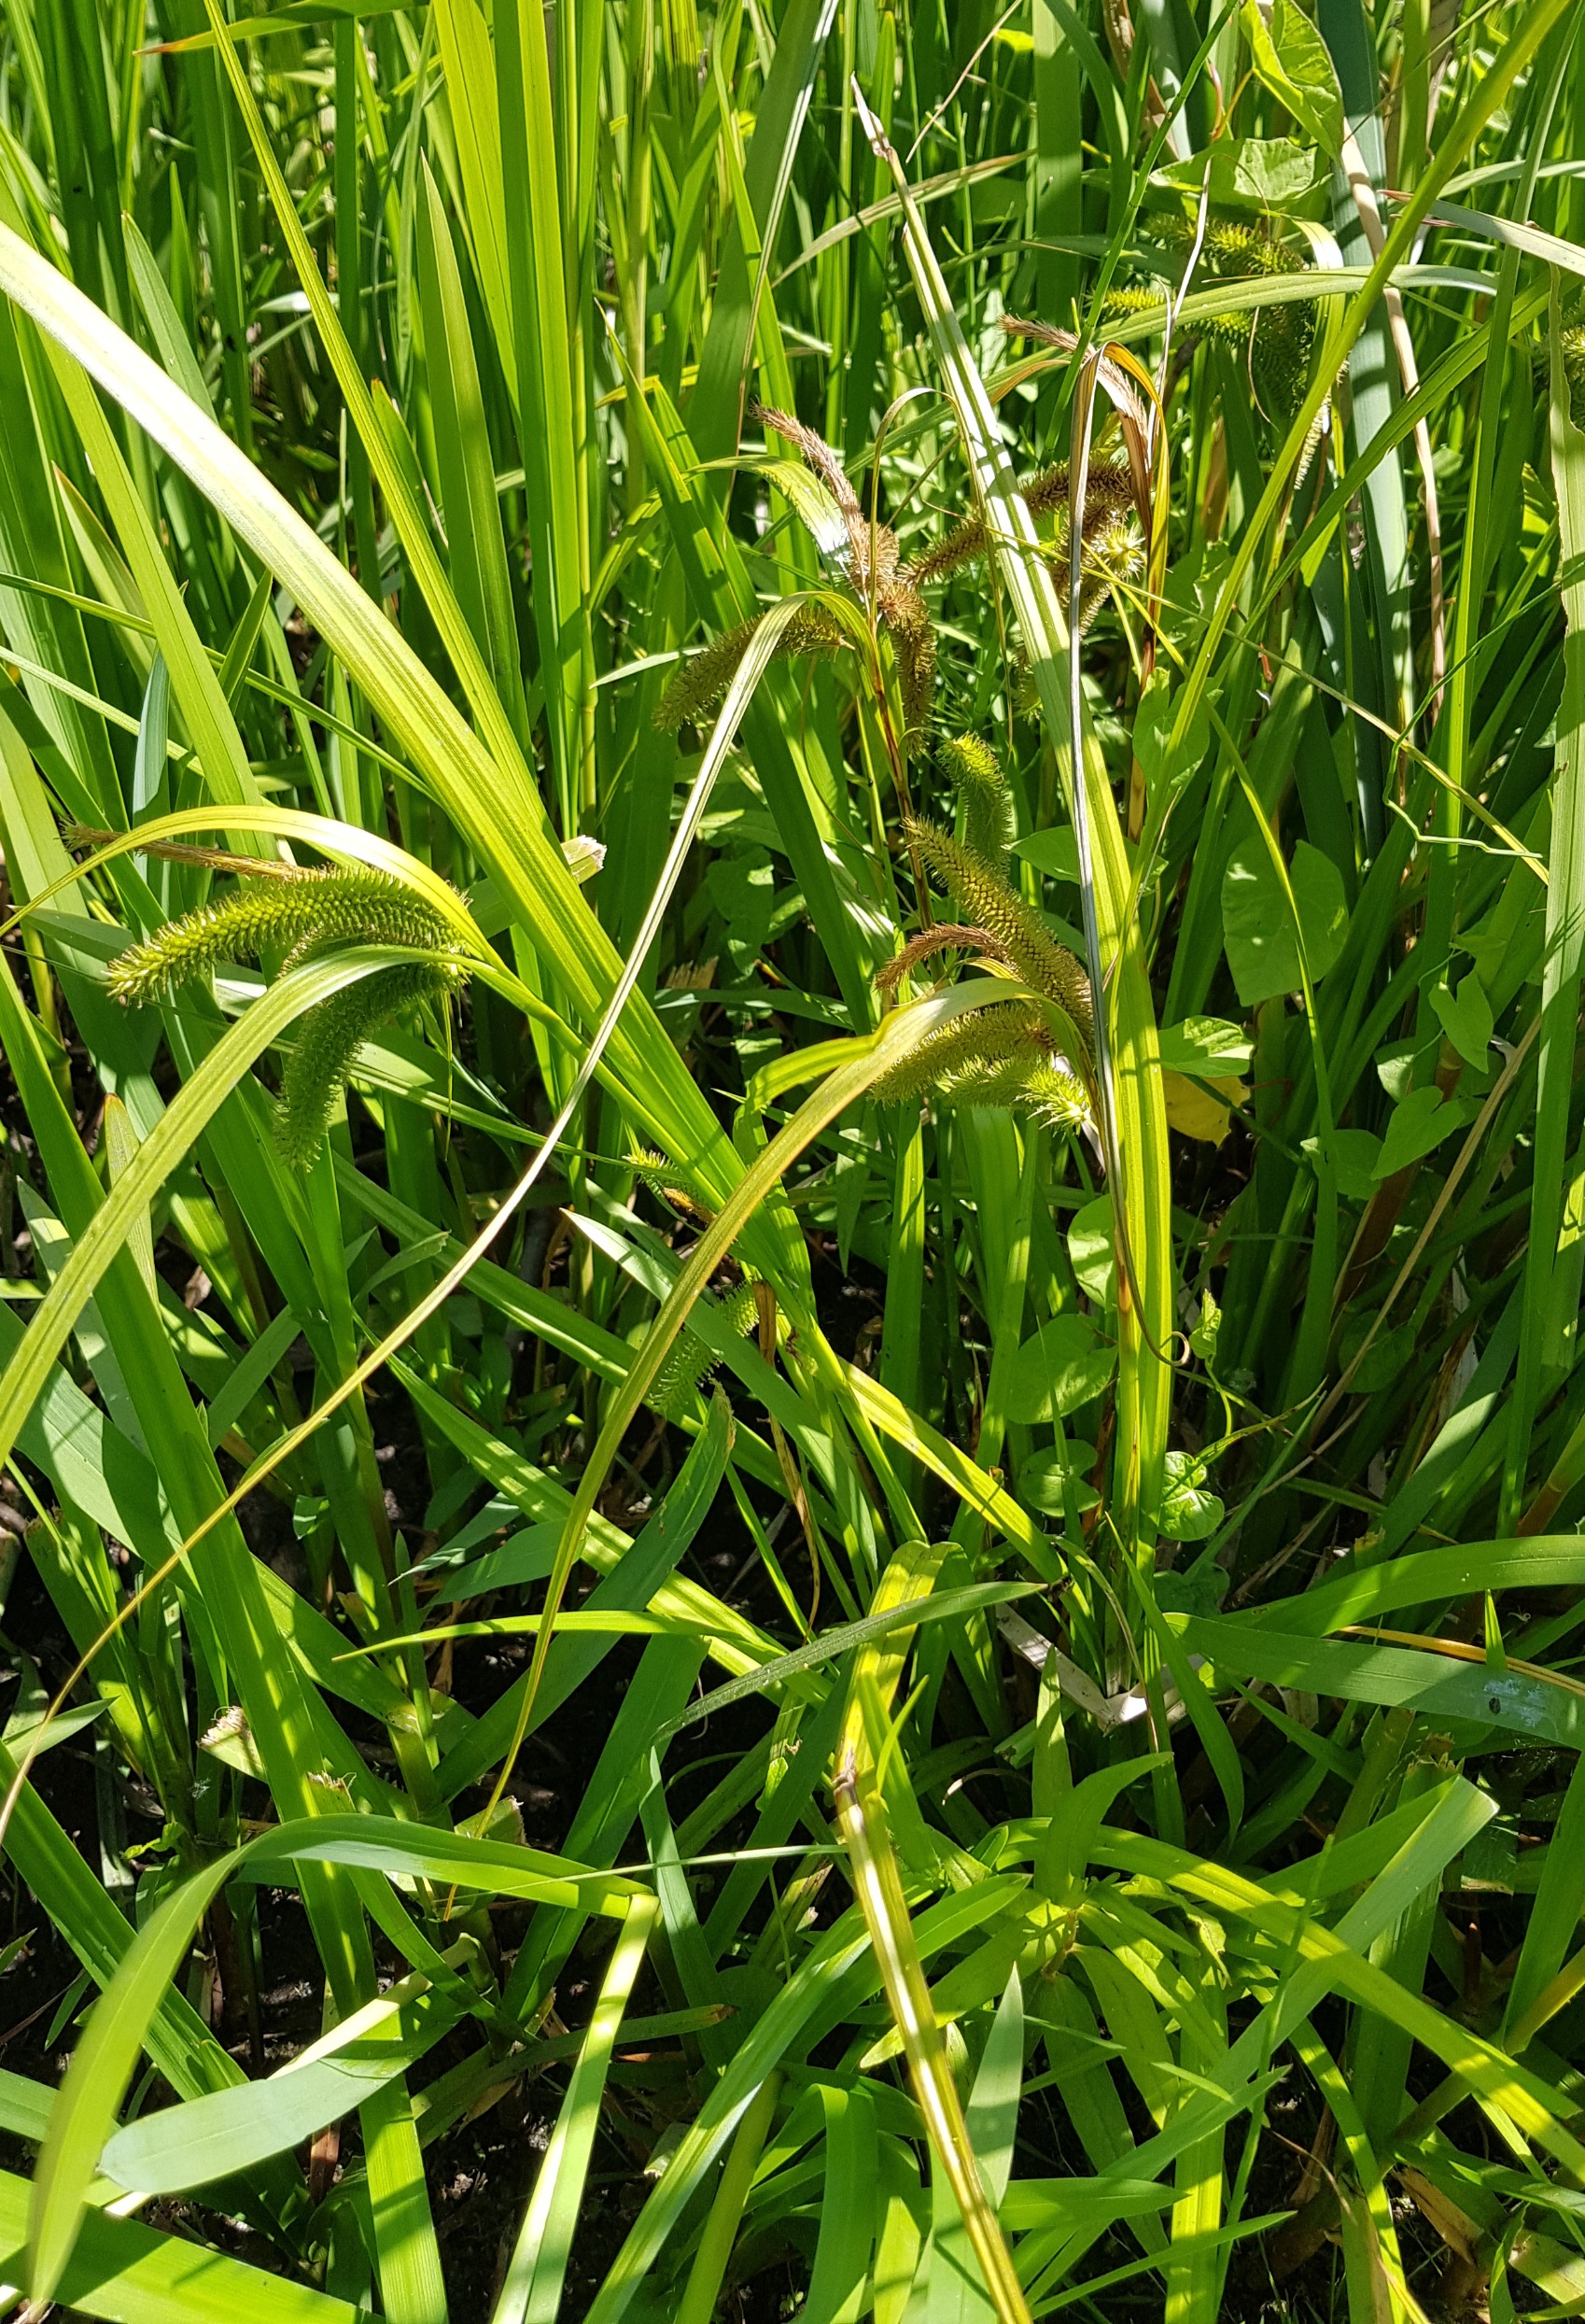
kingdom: Plantae
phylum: Tracheophyta
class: Liliopsida
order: Poales
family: Cyperaceae
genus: Carex
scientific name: Carex pseudocyperus
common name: Knippe-star
